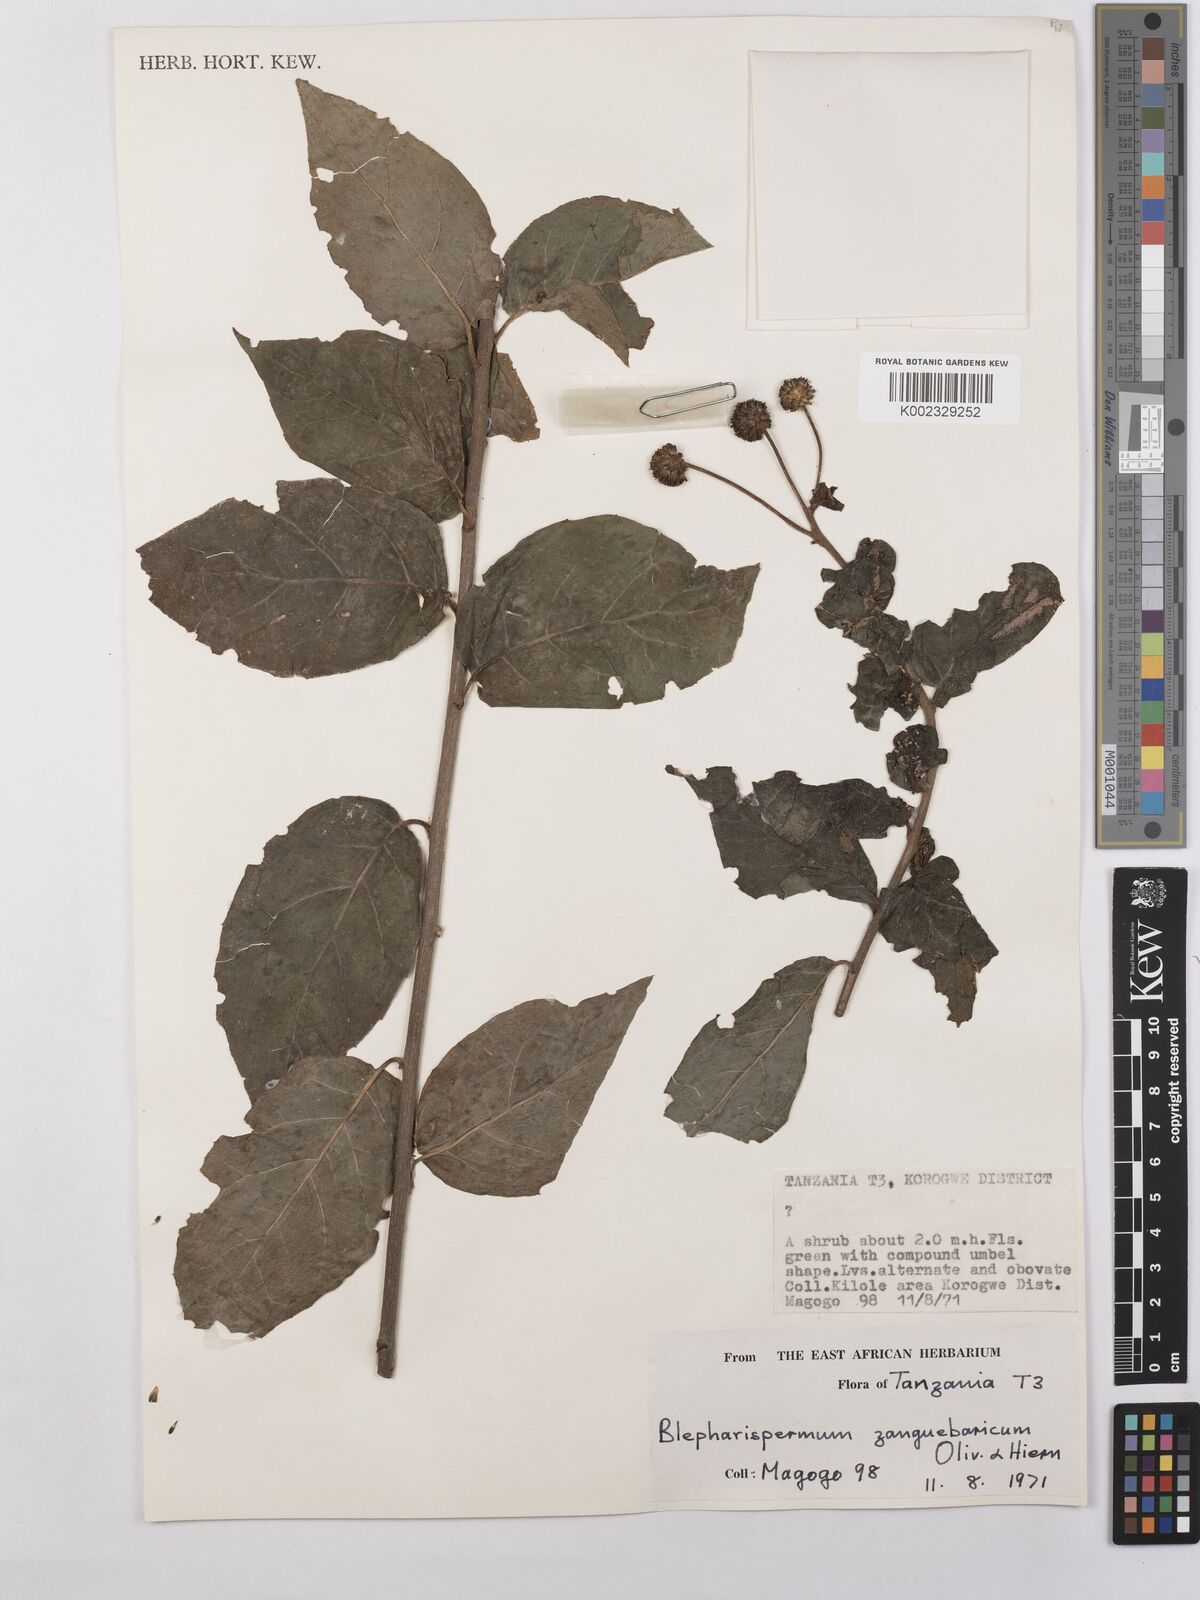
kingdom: Plantae
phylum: Tracheophyta
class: Magnoliopsida
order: Asterales
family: Asteraceae
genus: Blepharispermum
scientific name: Blepharispermum zanguebaricum
